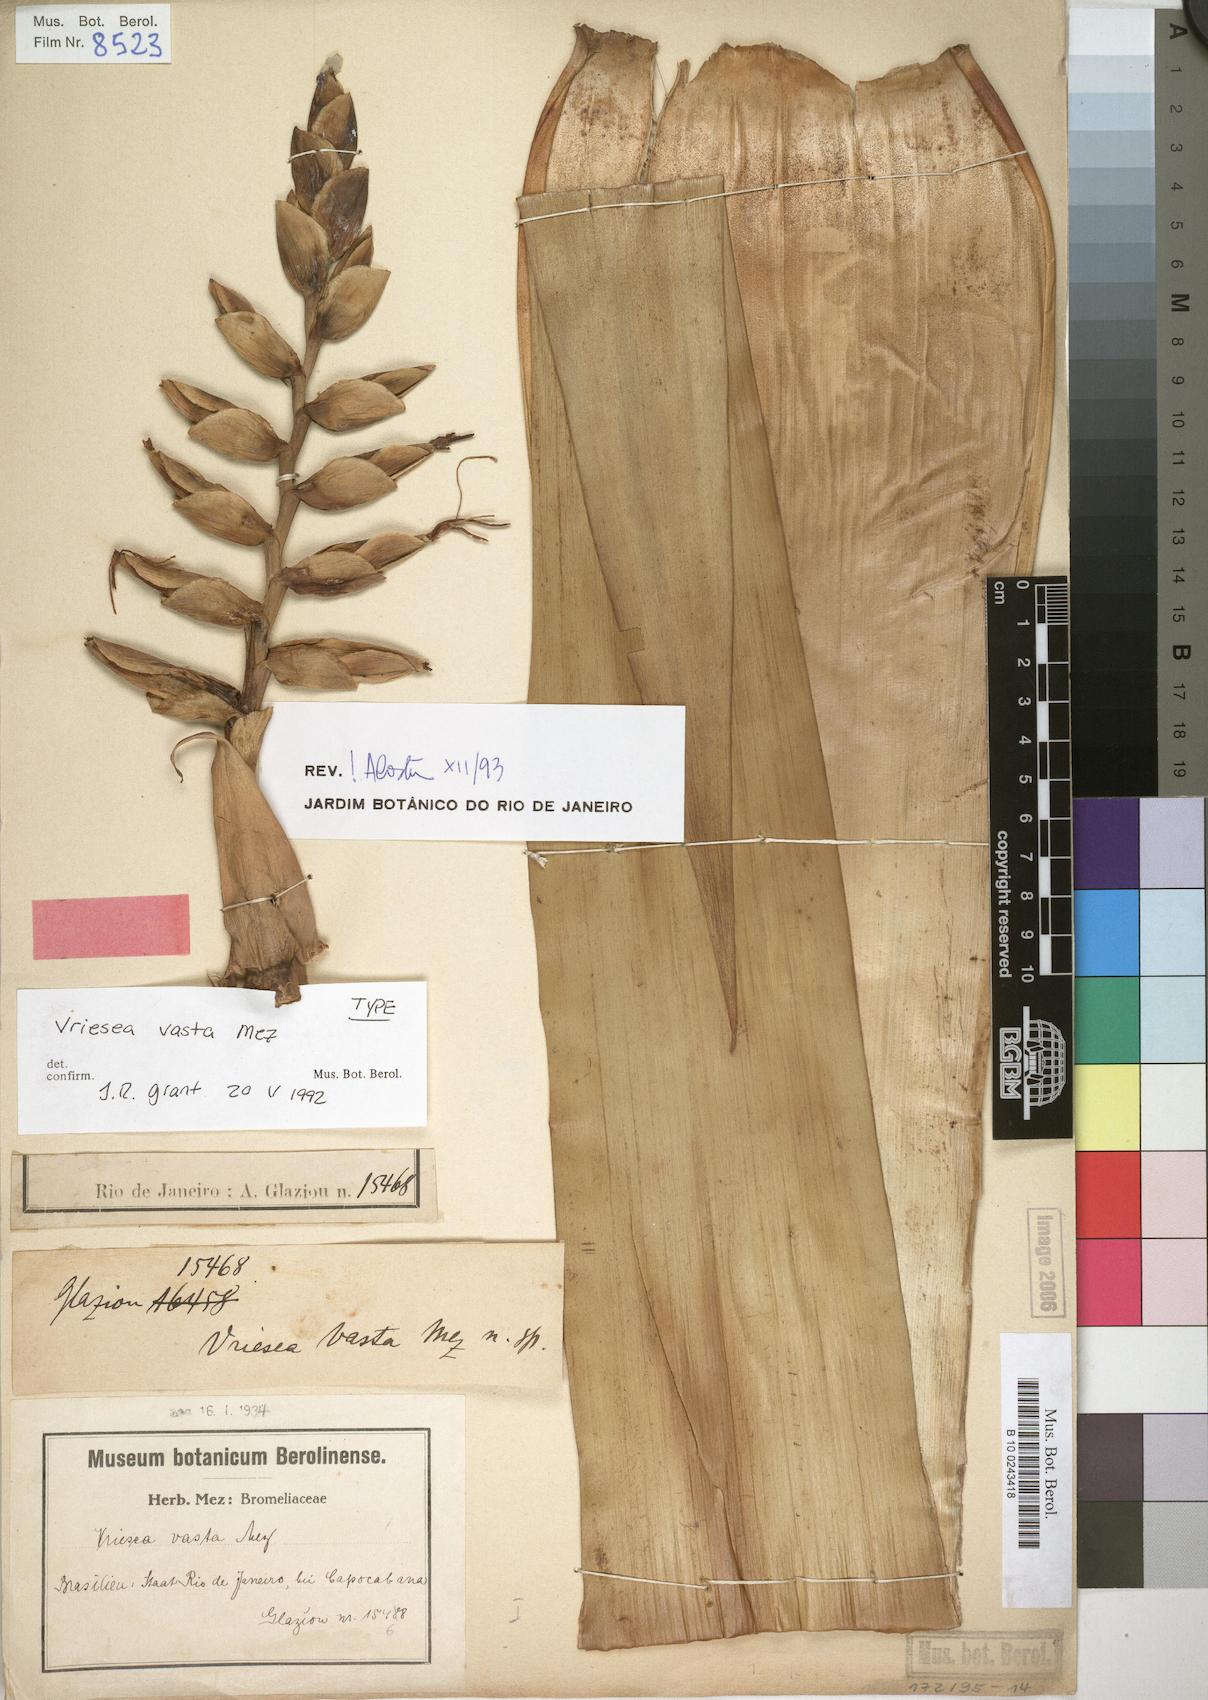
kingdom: Plantae
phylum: Tracheophyta
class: Liliopsida
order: Poales
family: Bromeliaceae
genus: Alcantarea
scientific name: Alcantarea glaziouana
